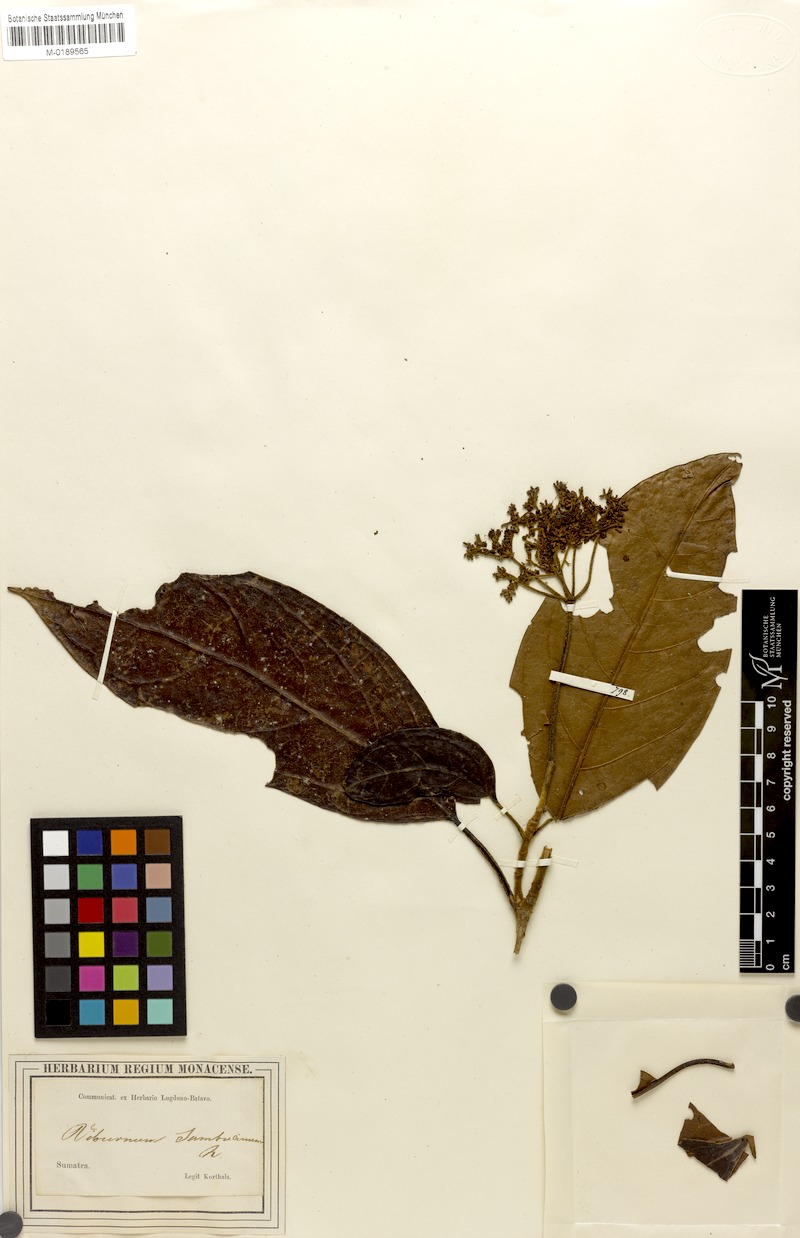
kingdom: Plantae
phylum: Tracheophyta
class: Magnoliopsida
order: Dipsacales
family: Viburnaceae
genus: Viburnum
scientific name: Viburnum sambucinum
